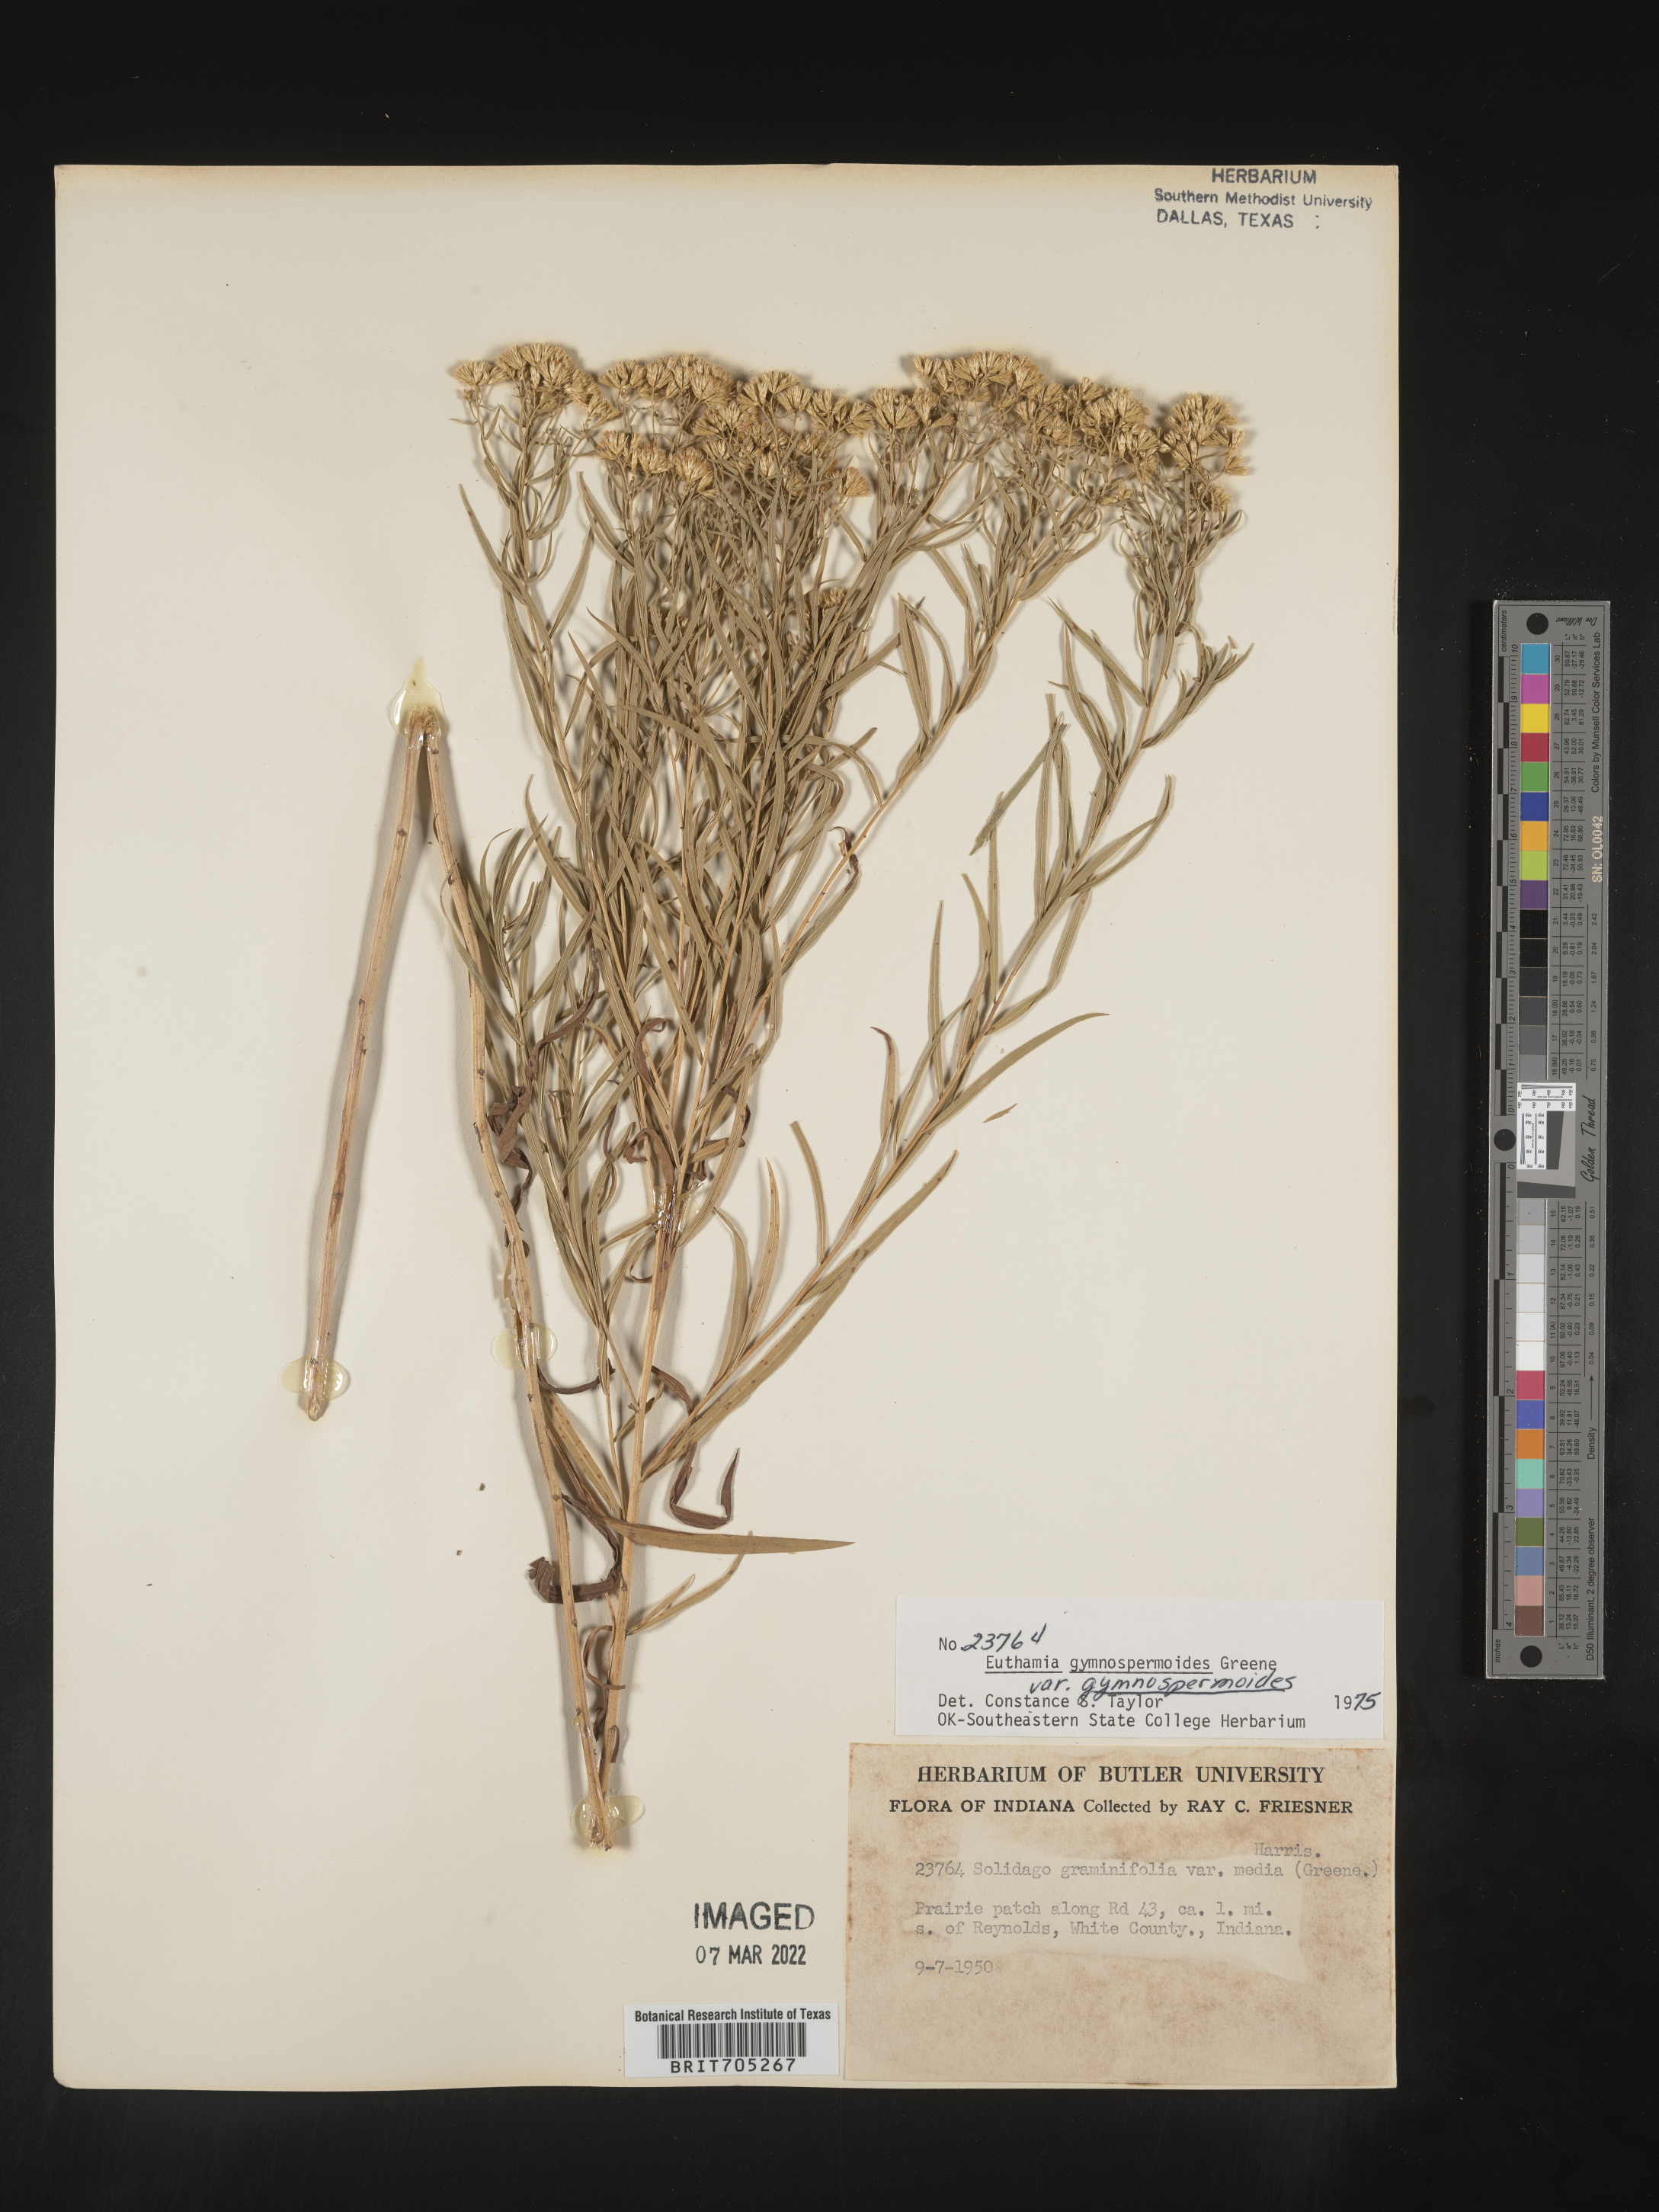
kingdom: Plantae
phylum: Tracheophyta
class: Magnoliopsida
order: Asterales
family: Asteraceae
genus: Euthamia
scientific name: Euthamia gymnospermoides
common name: Great plains goldentop
